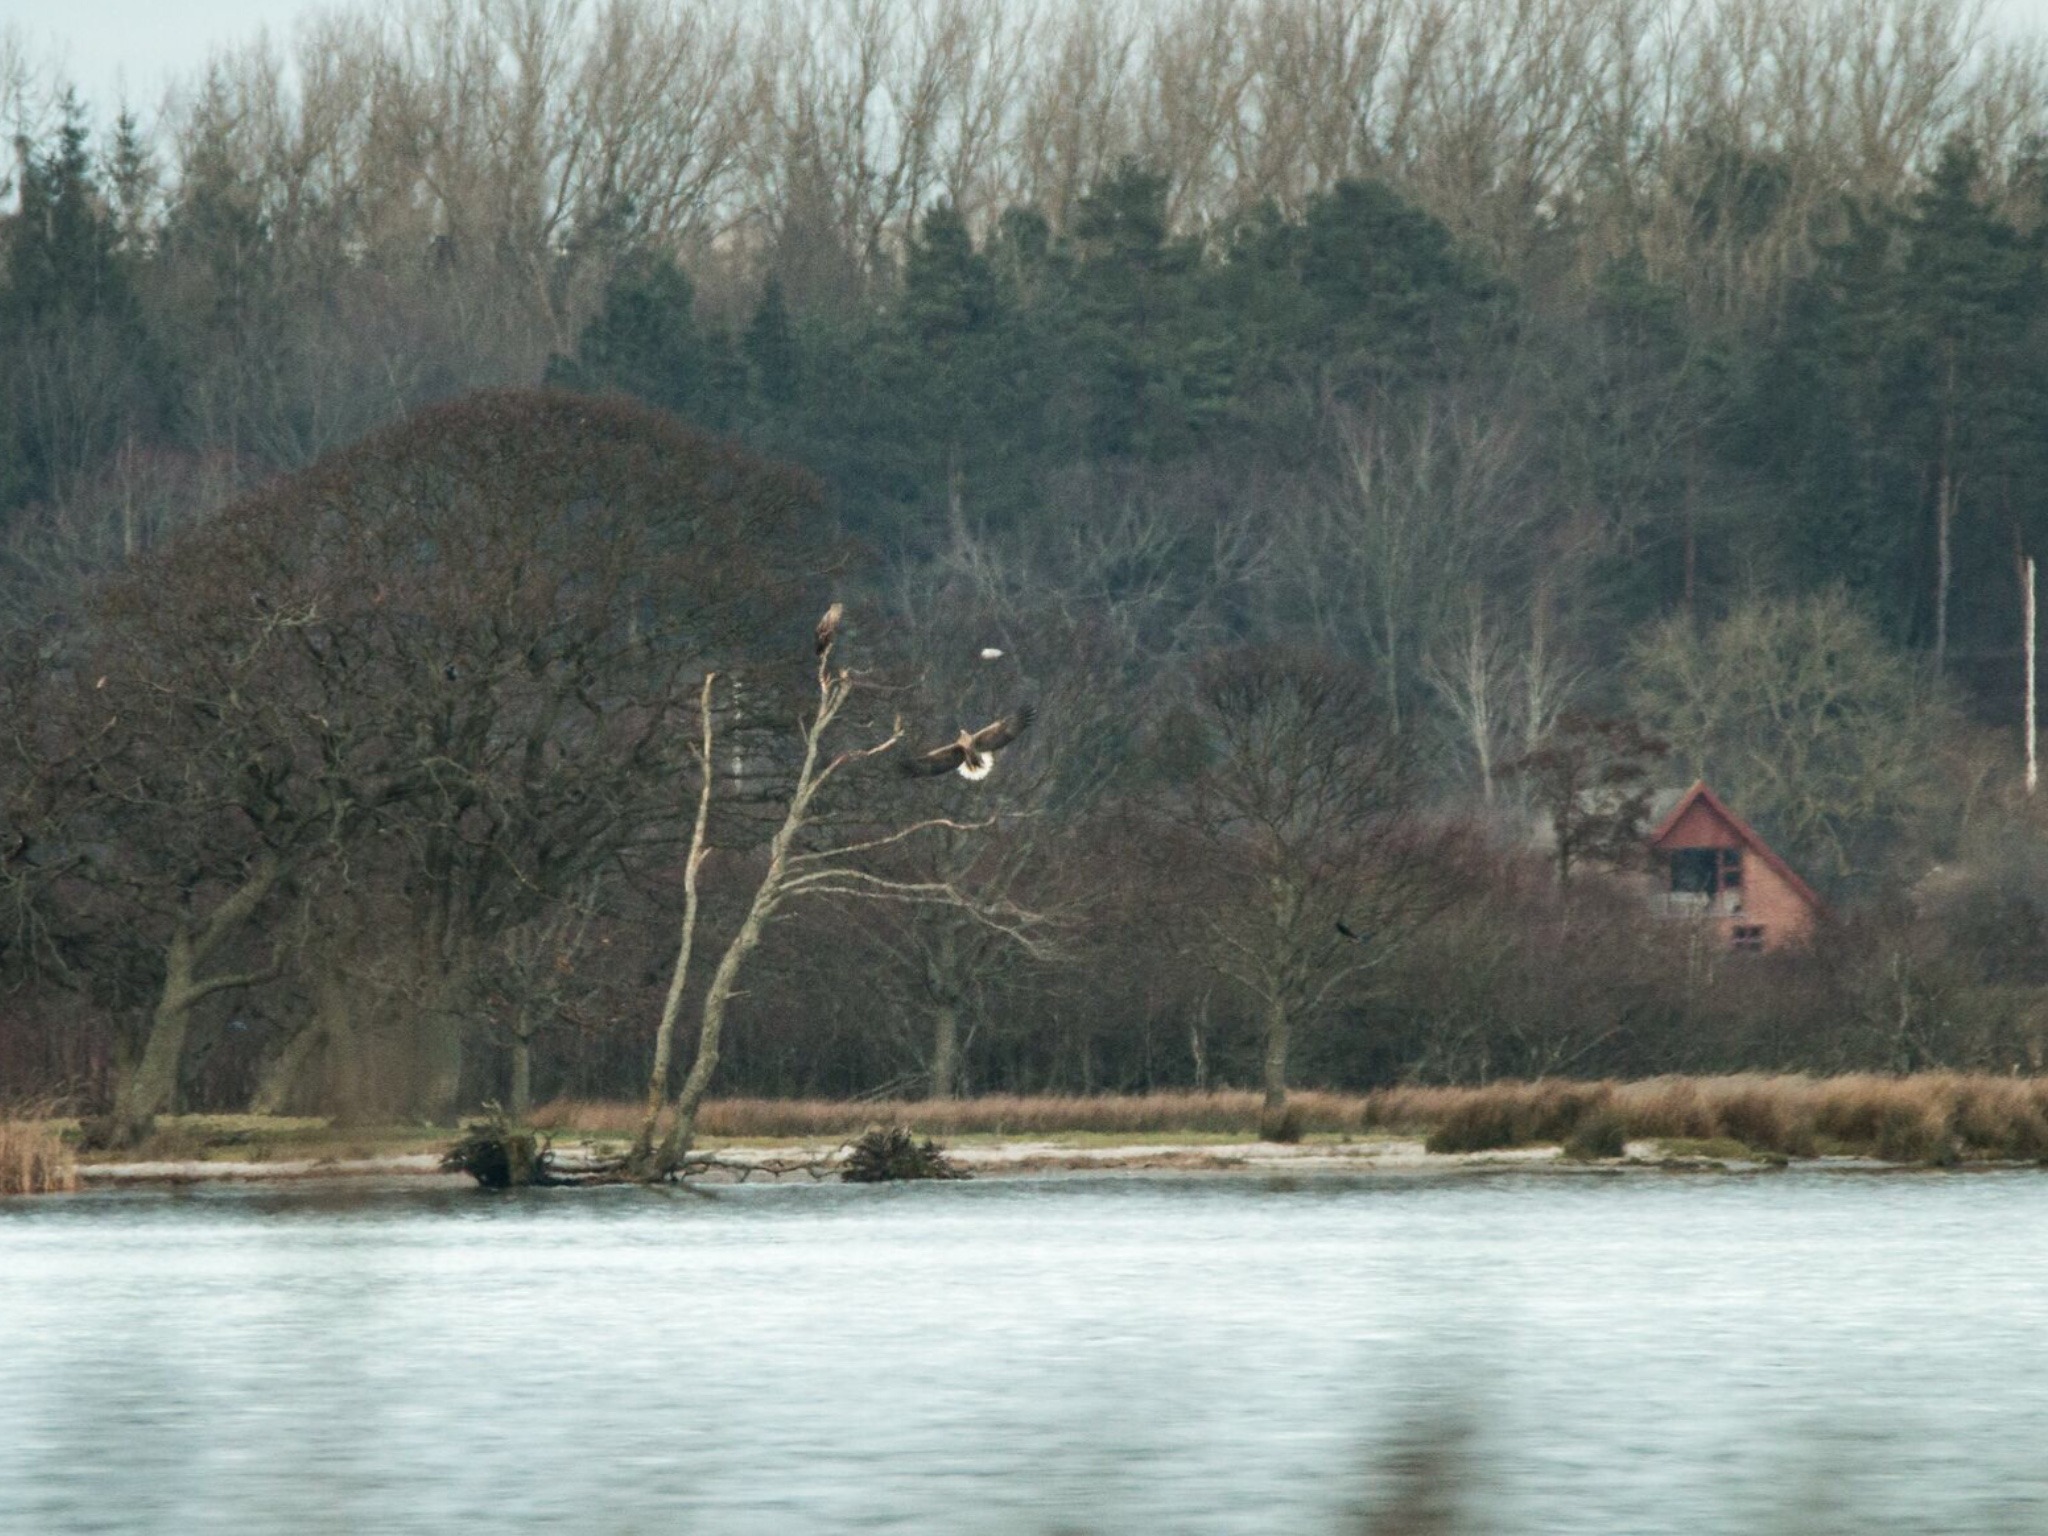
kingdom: Animalia
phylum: Chordata
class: Aves
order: Accipitriformes
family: Accipitridae
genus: Haliaeetus
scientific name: Haliaeetus albicilla
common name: Havørn
